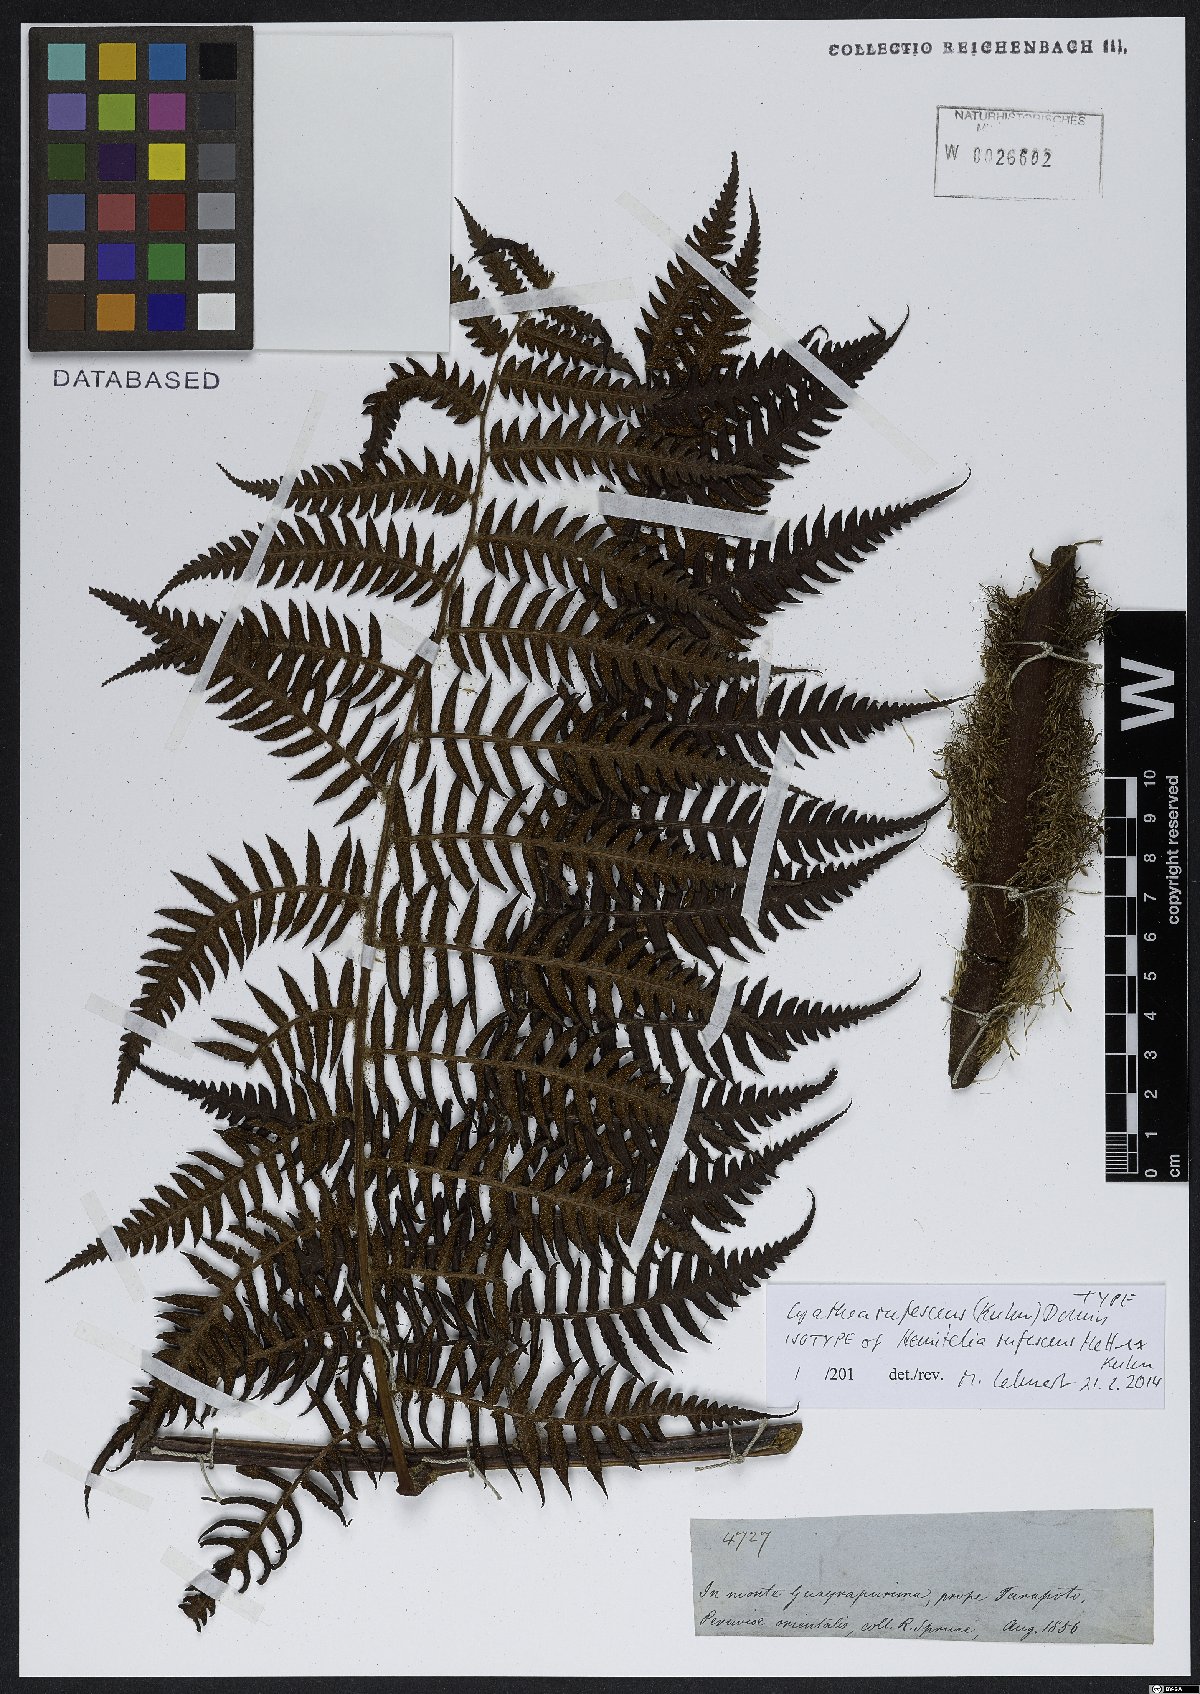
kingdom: Plantae
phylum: Tracheophyta
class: Polypodiopsida
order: Cyatheales
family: Cyatheaceae
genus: Cyathea
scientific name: Cyathea rufescens
